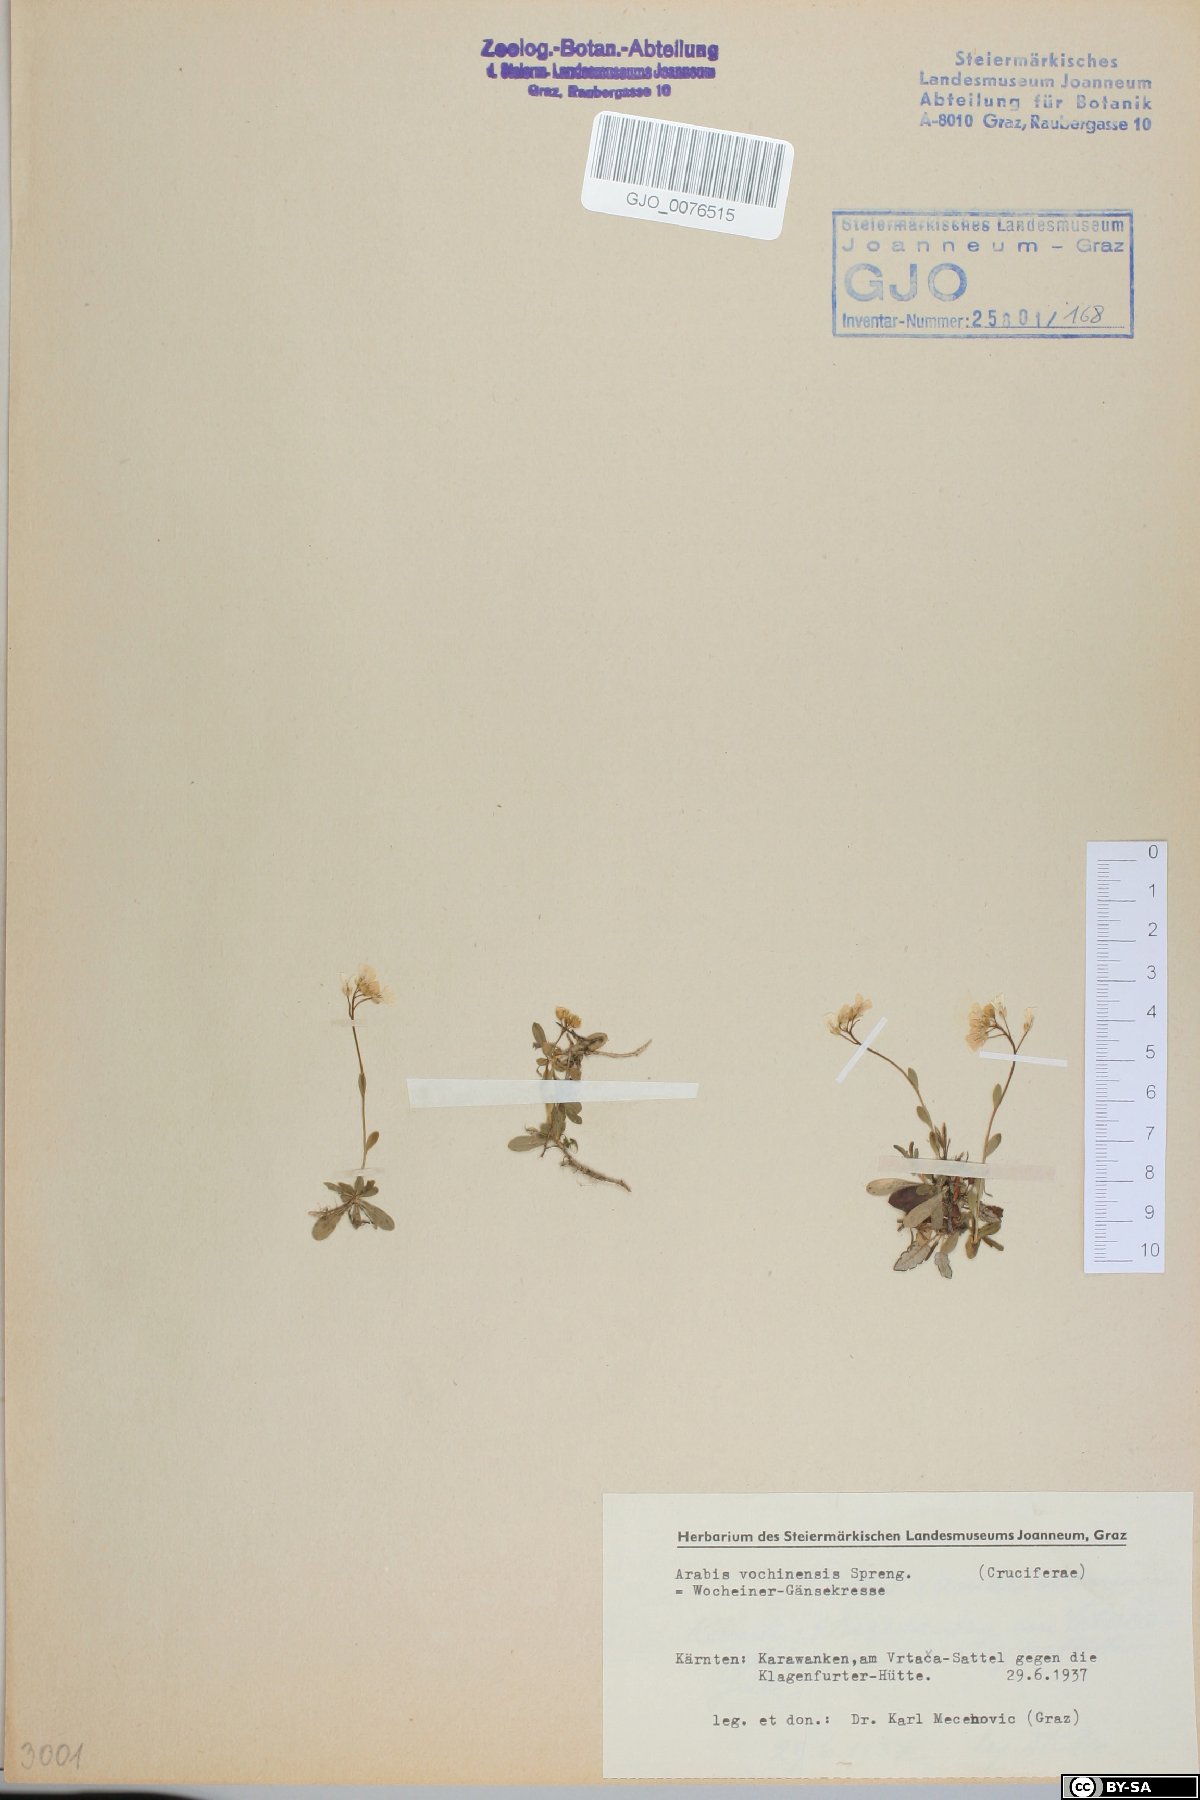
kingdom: Plantae
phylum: Tracheophyta
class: Magnoliopsida
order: Brassicales
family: Brassicaceae
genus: Arabis
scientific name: Arabis vochinensis
